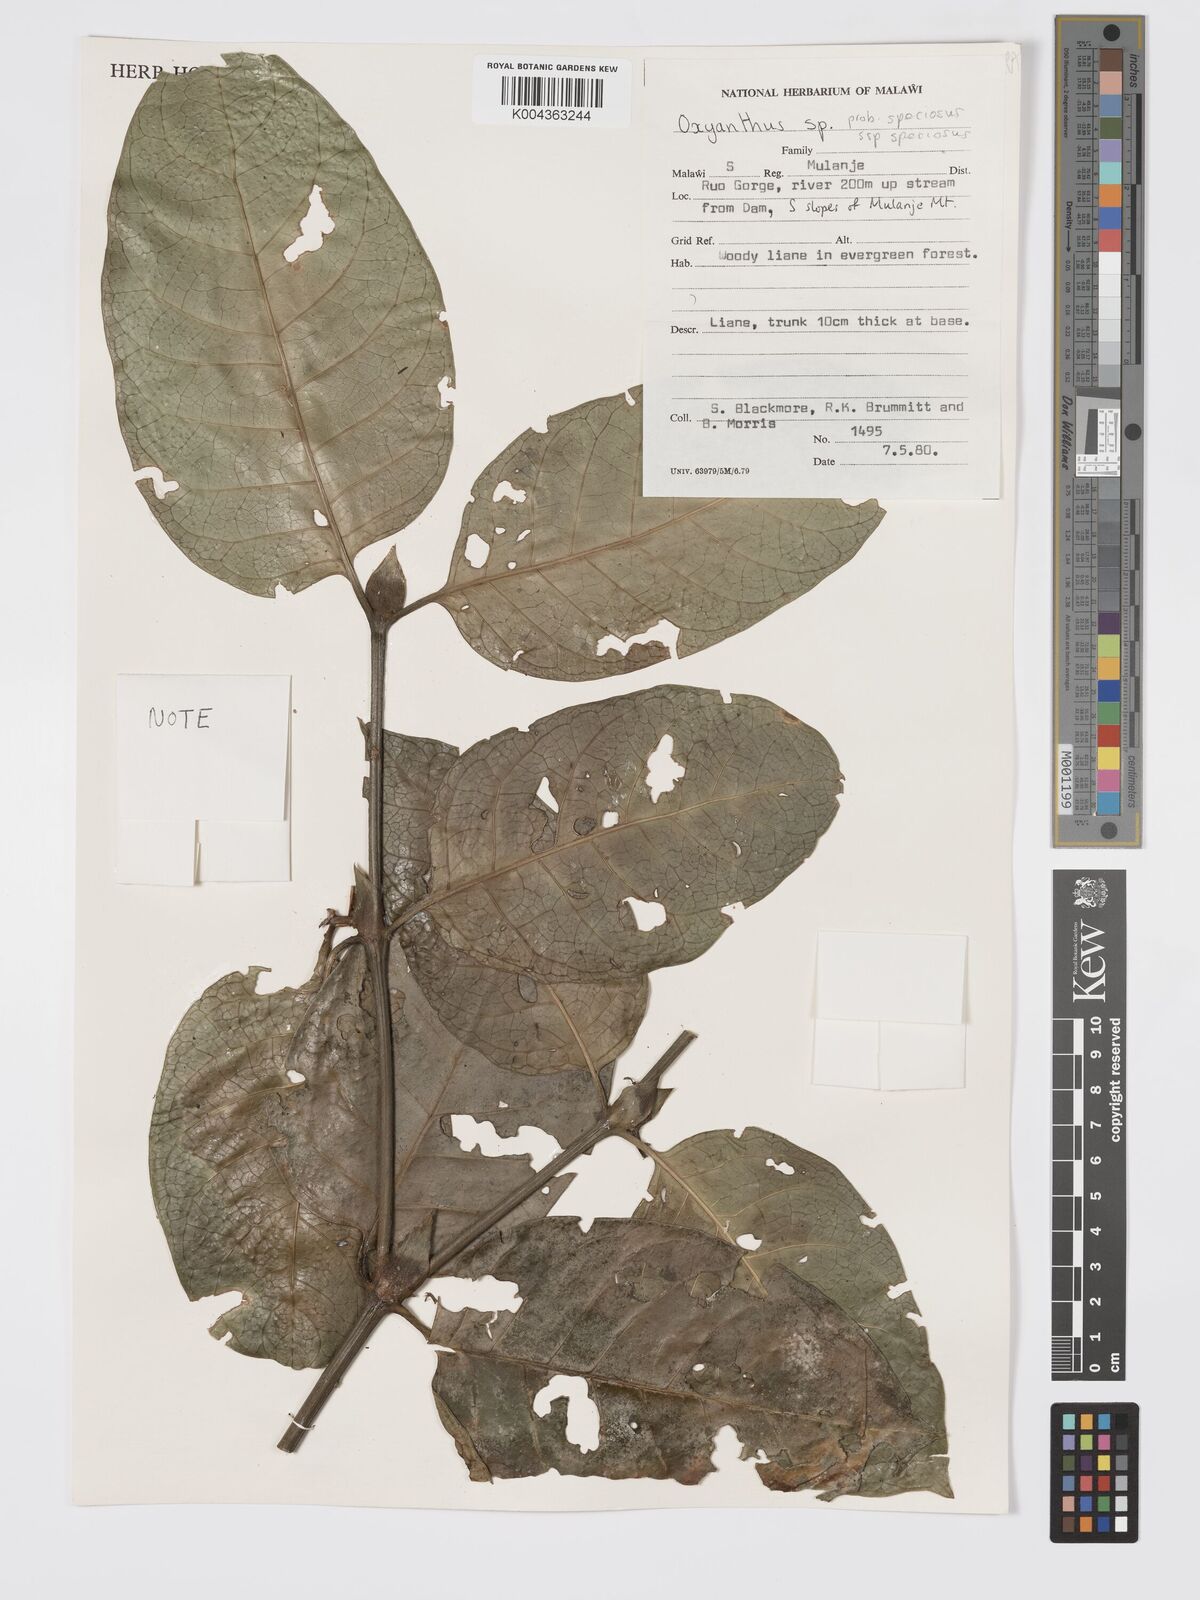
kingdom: Plantae
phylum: Tracheophyta
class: Magnoliopsida
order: Gentianales
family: Rubiaceae
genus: Oxyanthus
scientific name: Oxyanthus speciosus
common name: Whipstick loquat
